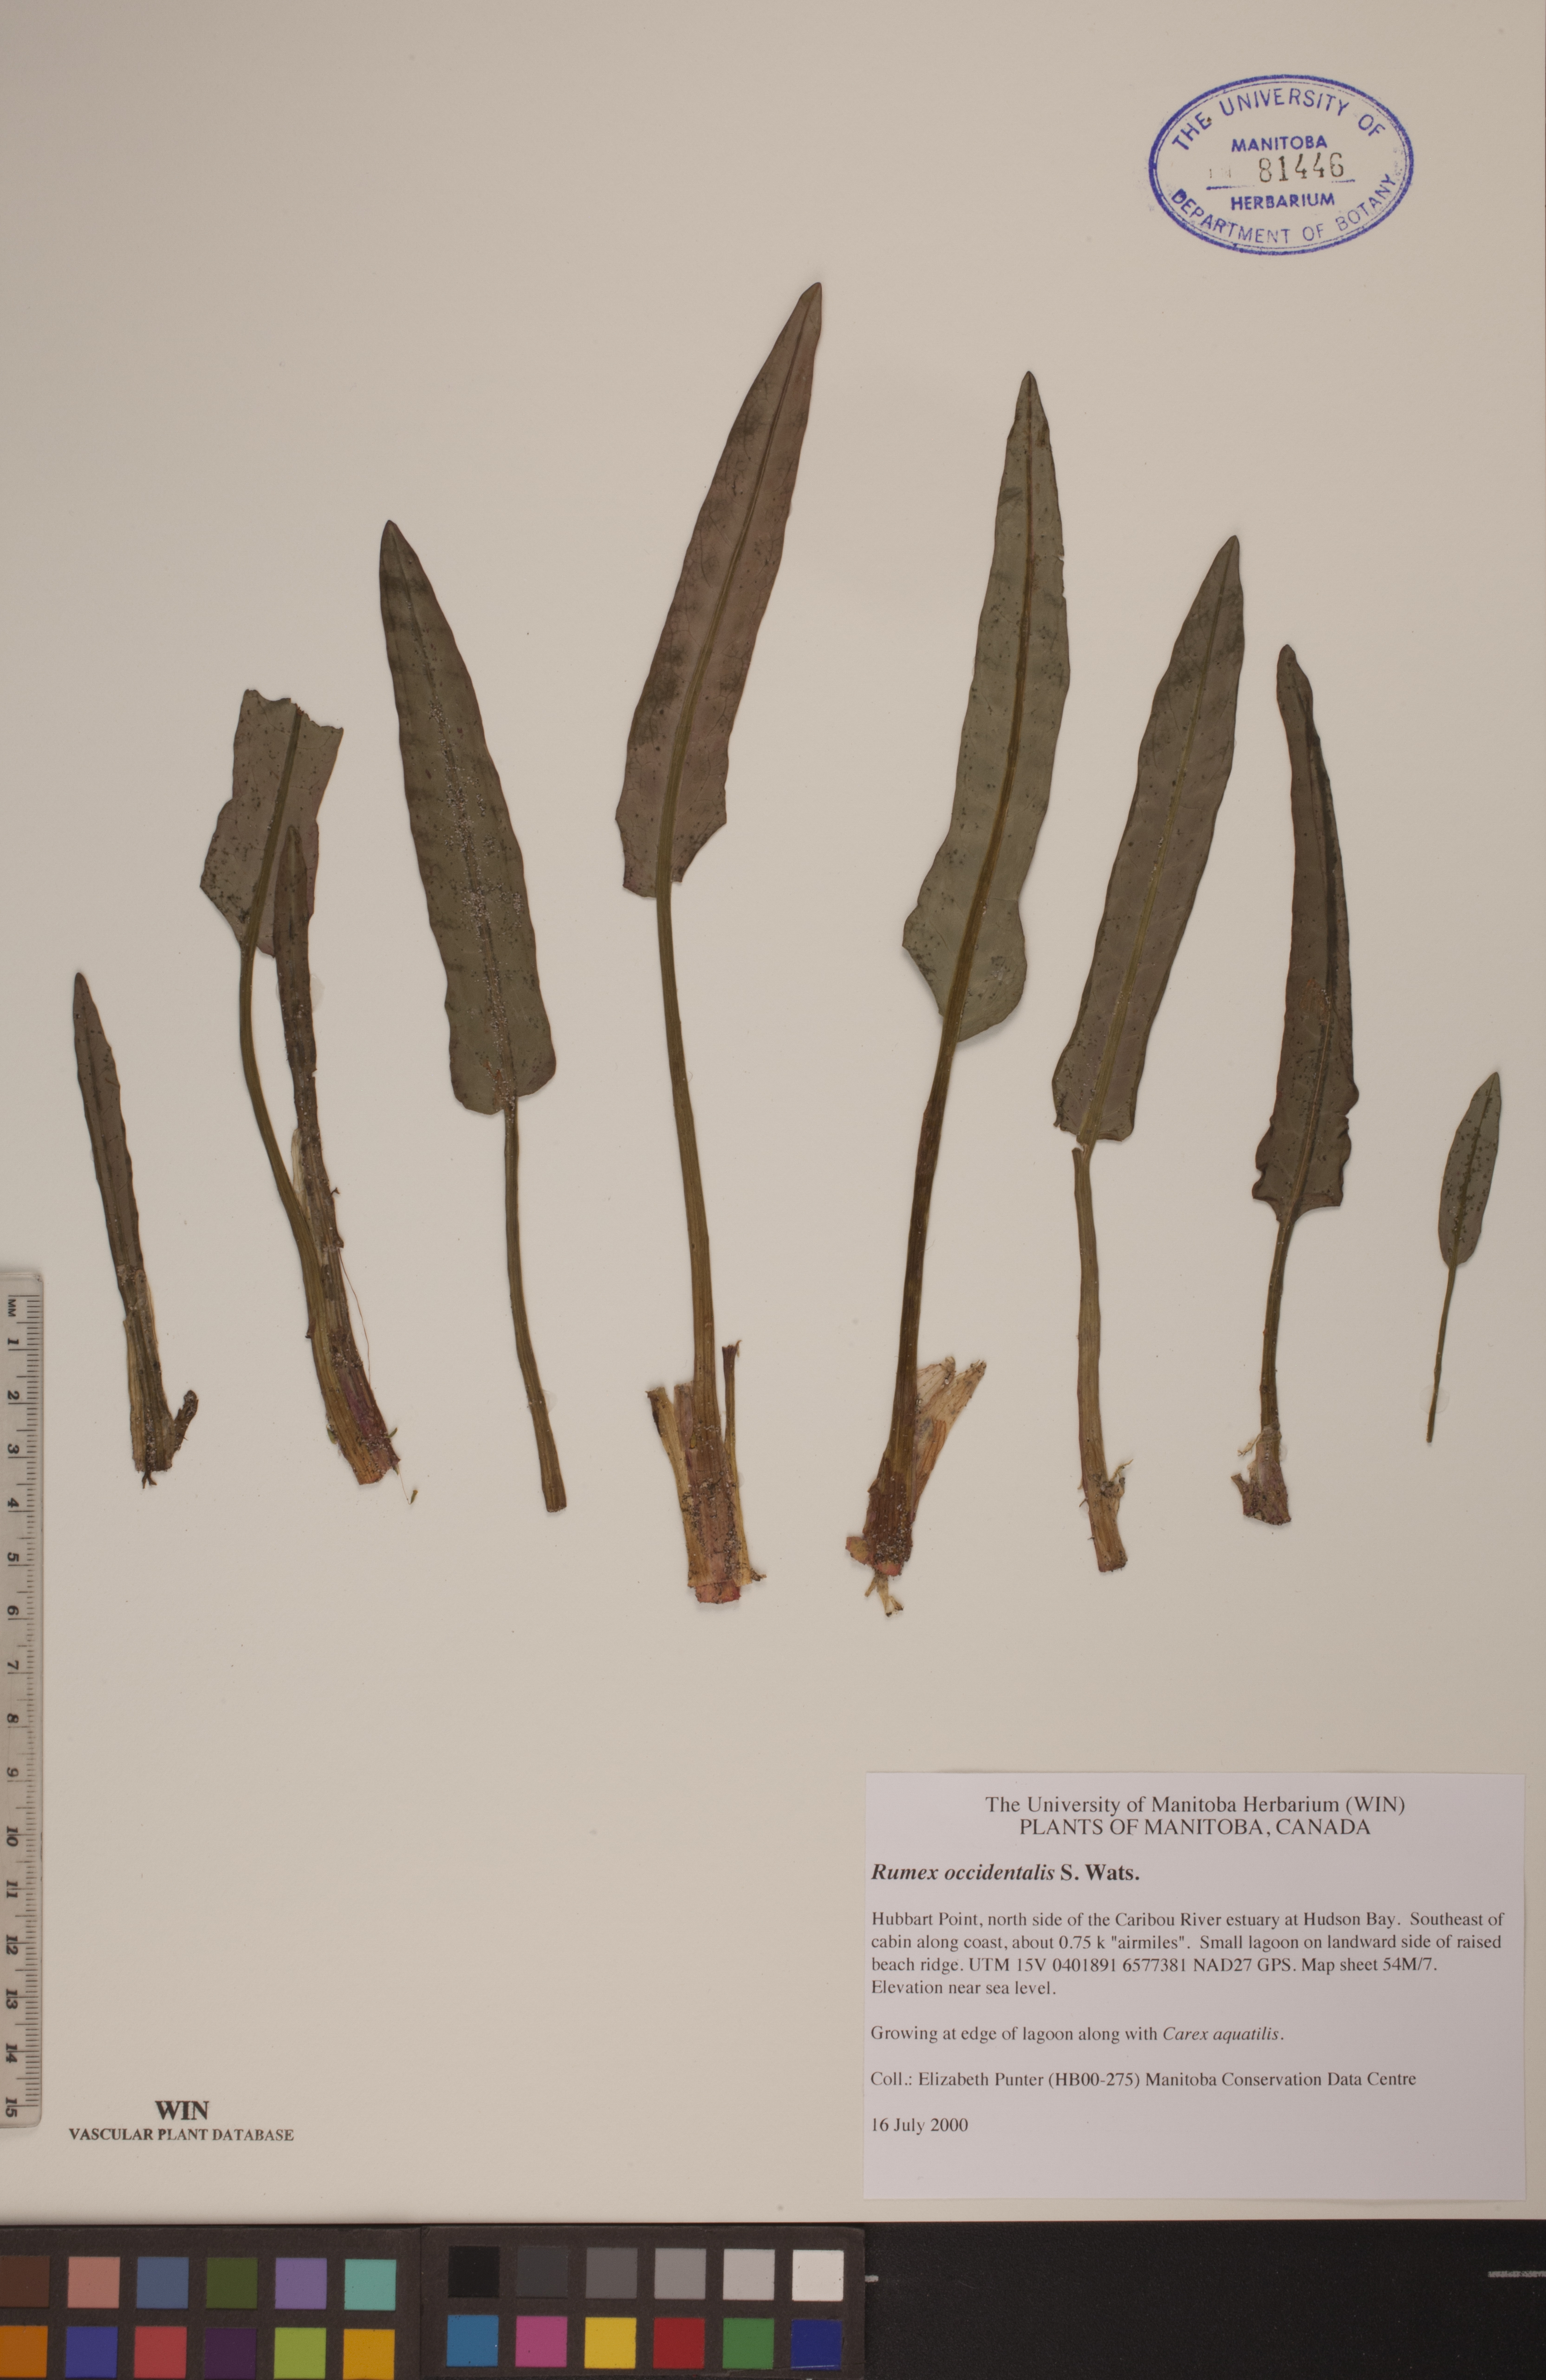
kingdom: Plantae
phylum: Tracheophyta
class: Magnoliopsida
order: Caryophyllales
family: Polygonaceae
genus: Rumex
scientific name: Rumex occidentalis
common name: Western dock
